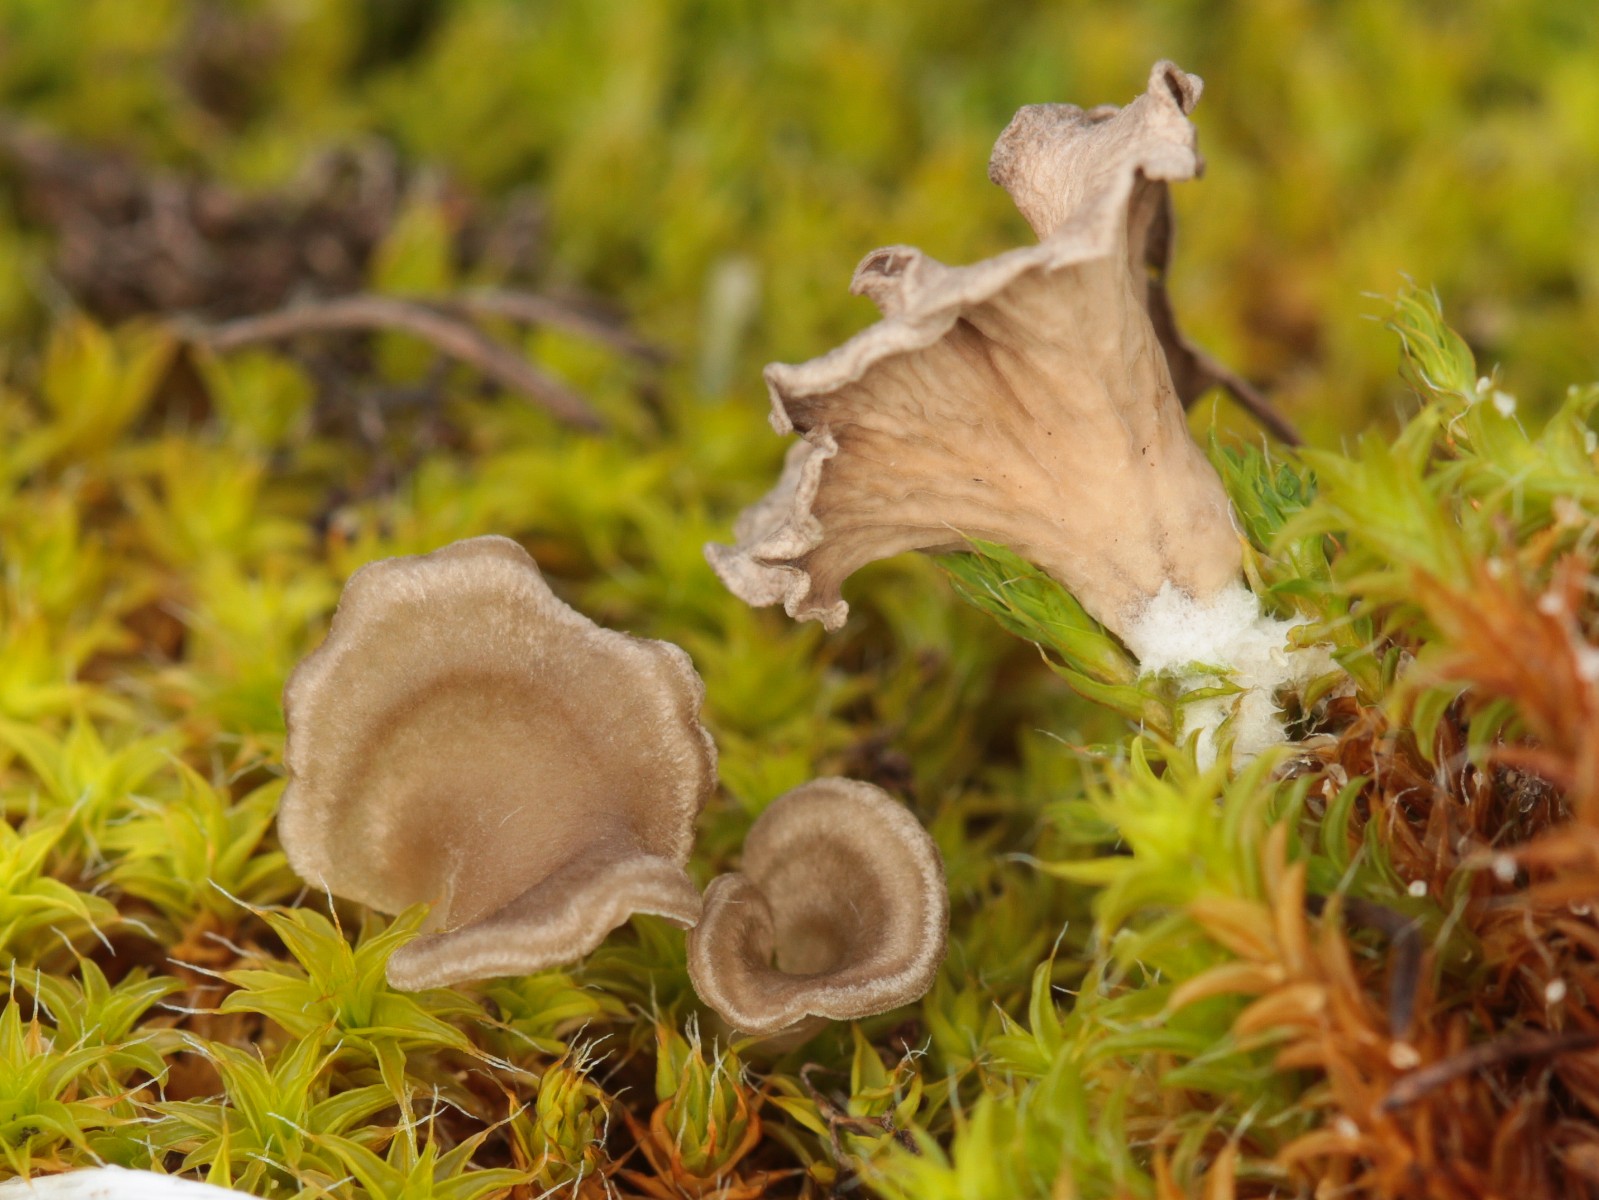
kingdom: Fungi
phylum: Basidiomycota
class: Agaricomycetes
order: Agaricales
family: Hygrophoraceae
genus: Arrhenia
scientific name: Arrhenia spathulata
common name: skæv fontænehat
